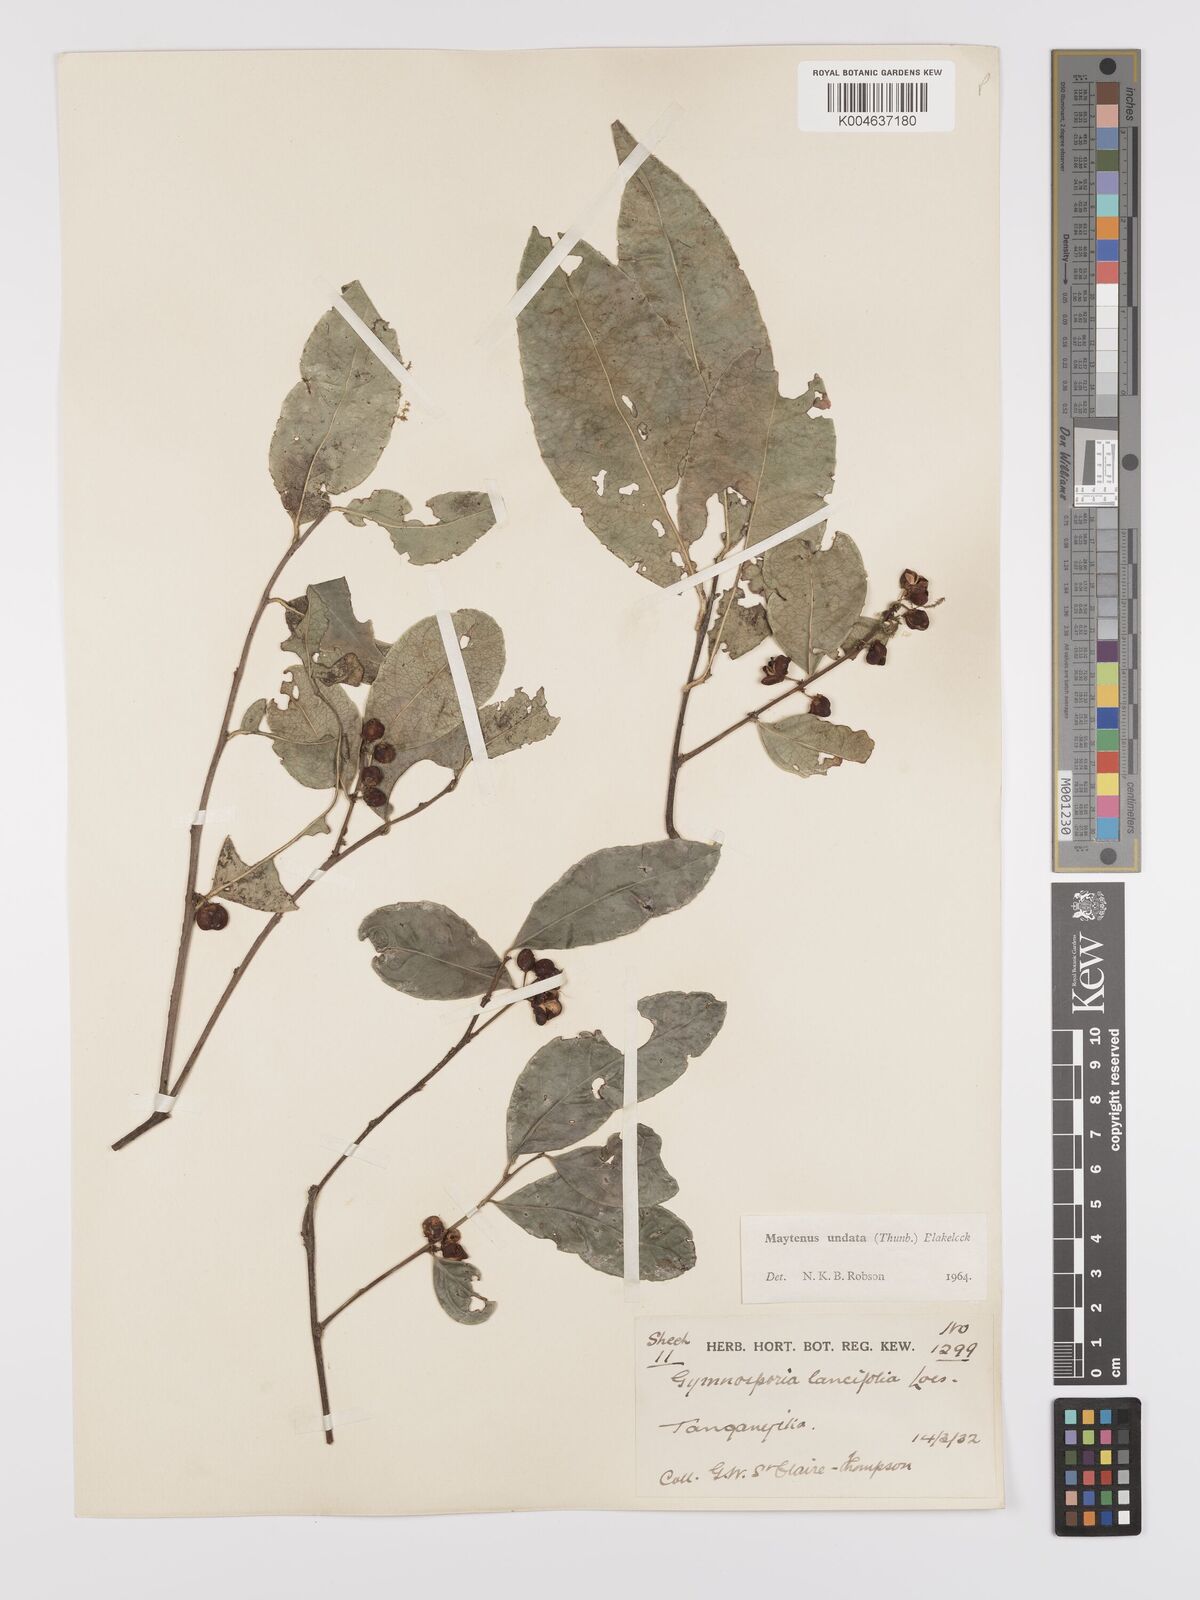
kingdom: Plantae
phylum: Tracheophyta
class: Magnoliopsida
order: Celastrales
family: Celastraceae
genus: Gymnosporia
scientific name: Gymnosporia undata
